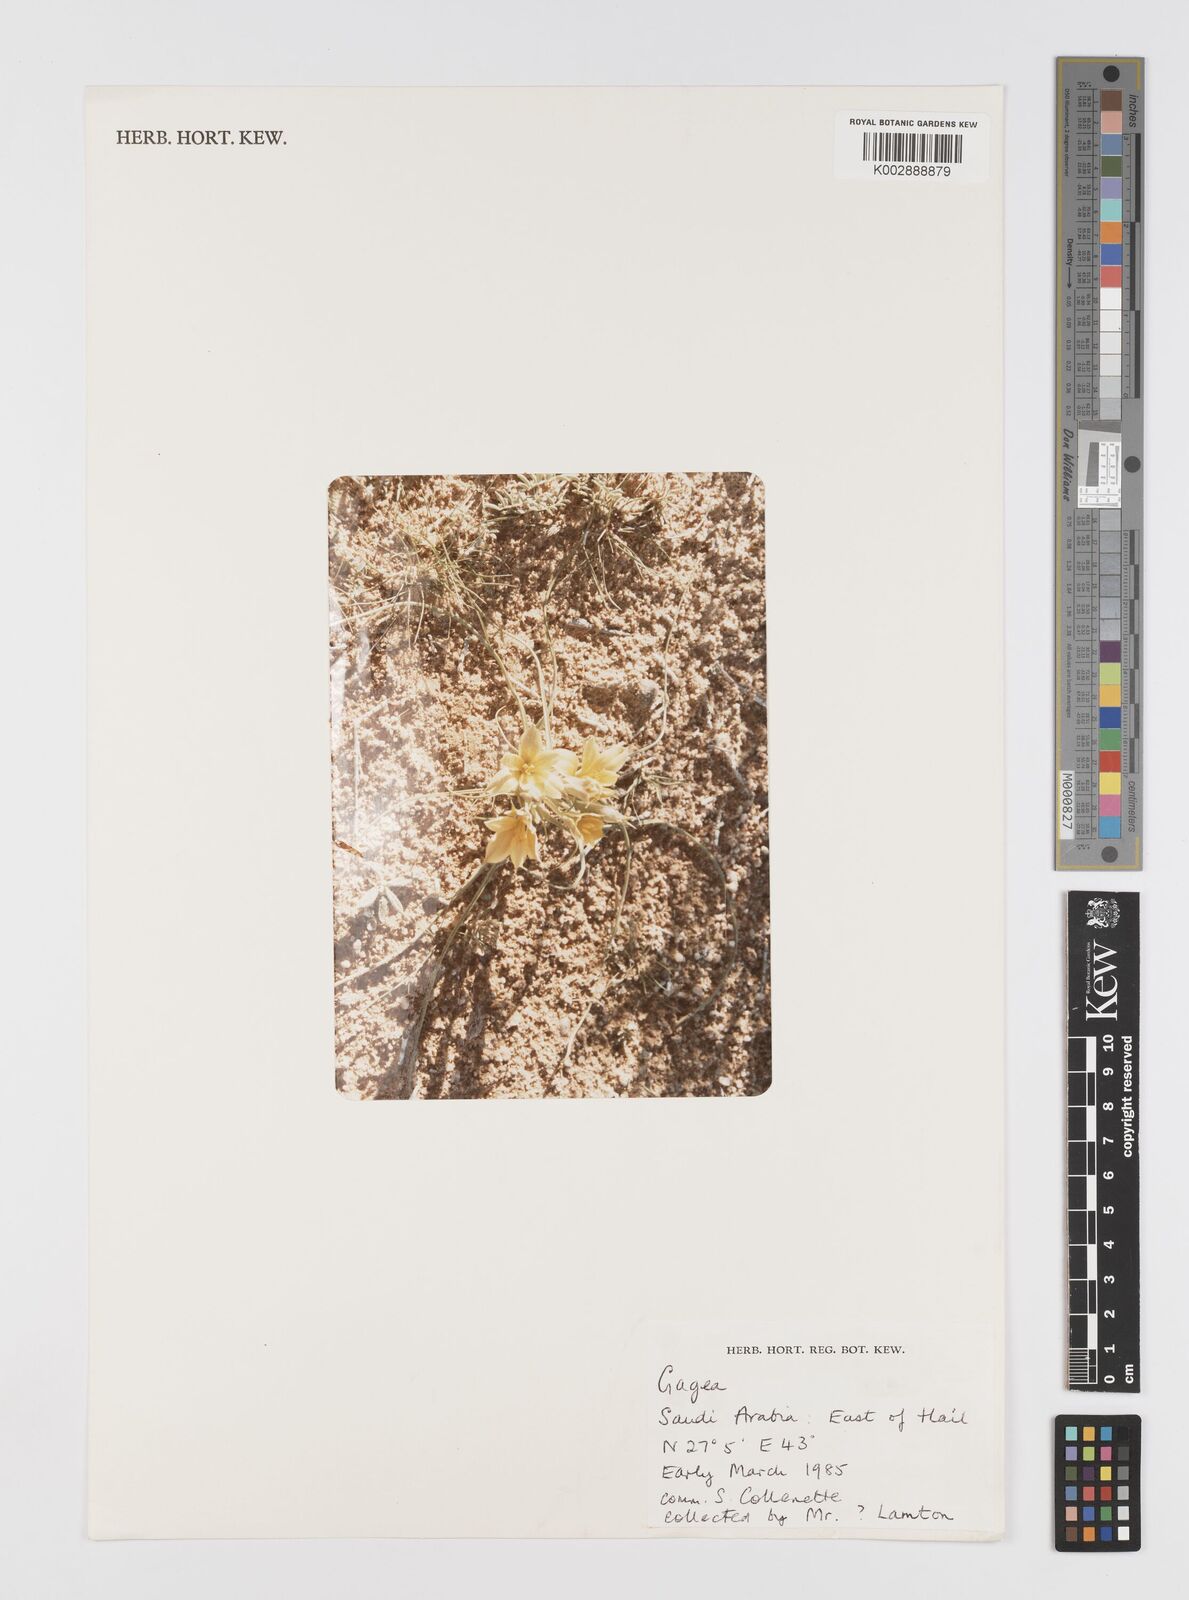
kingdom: Plantae
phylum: Tracheophyta
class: Liliopsida
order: Liliales
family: Liliaceae
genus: Gagea
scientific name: Gagea
